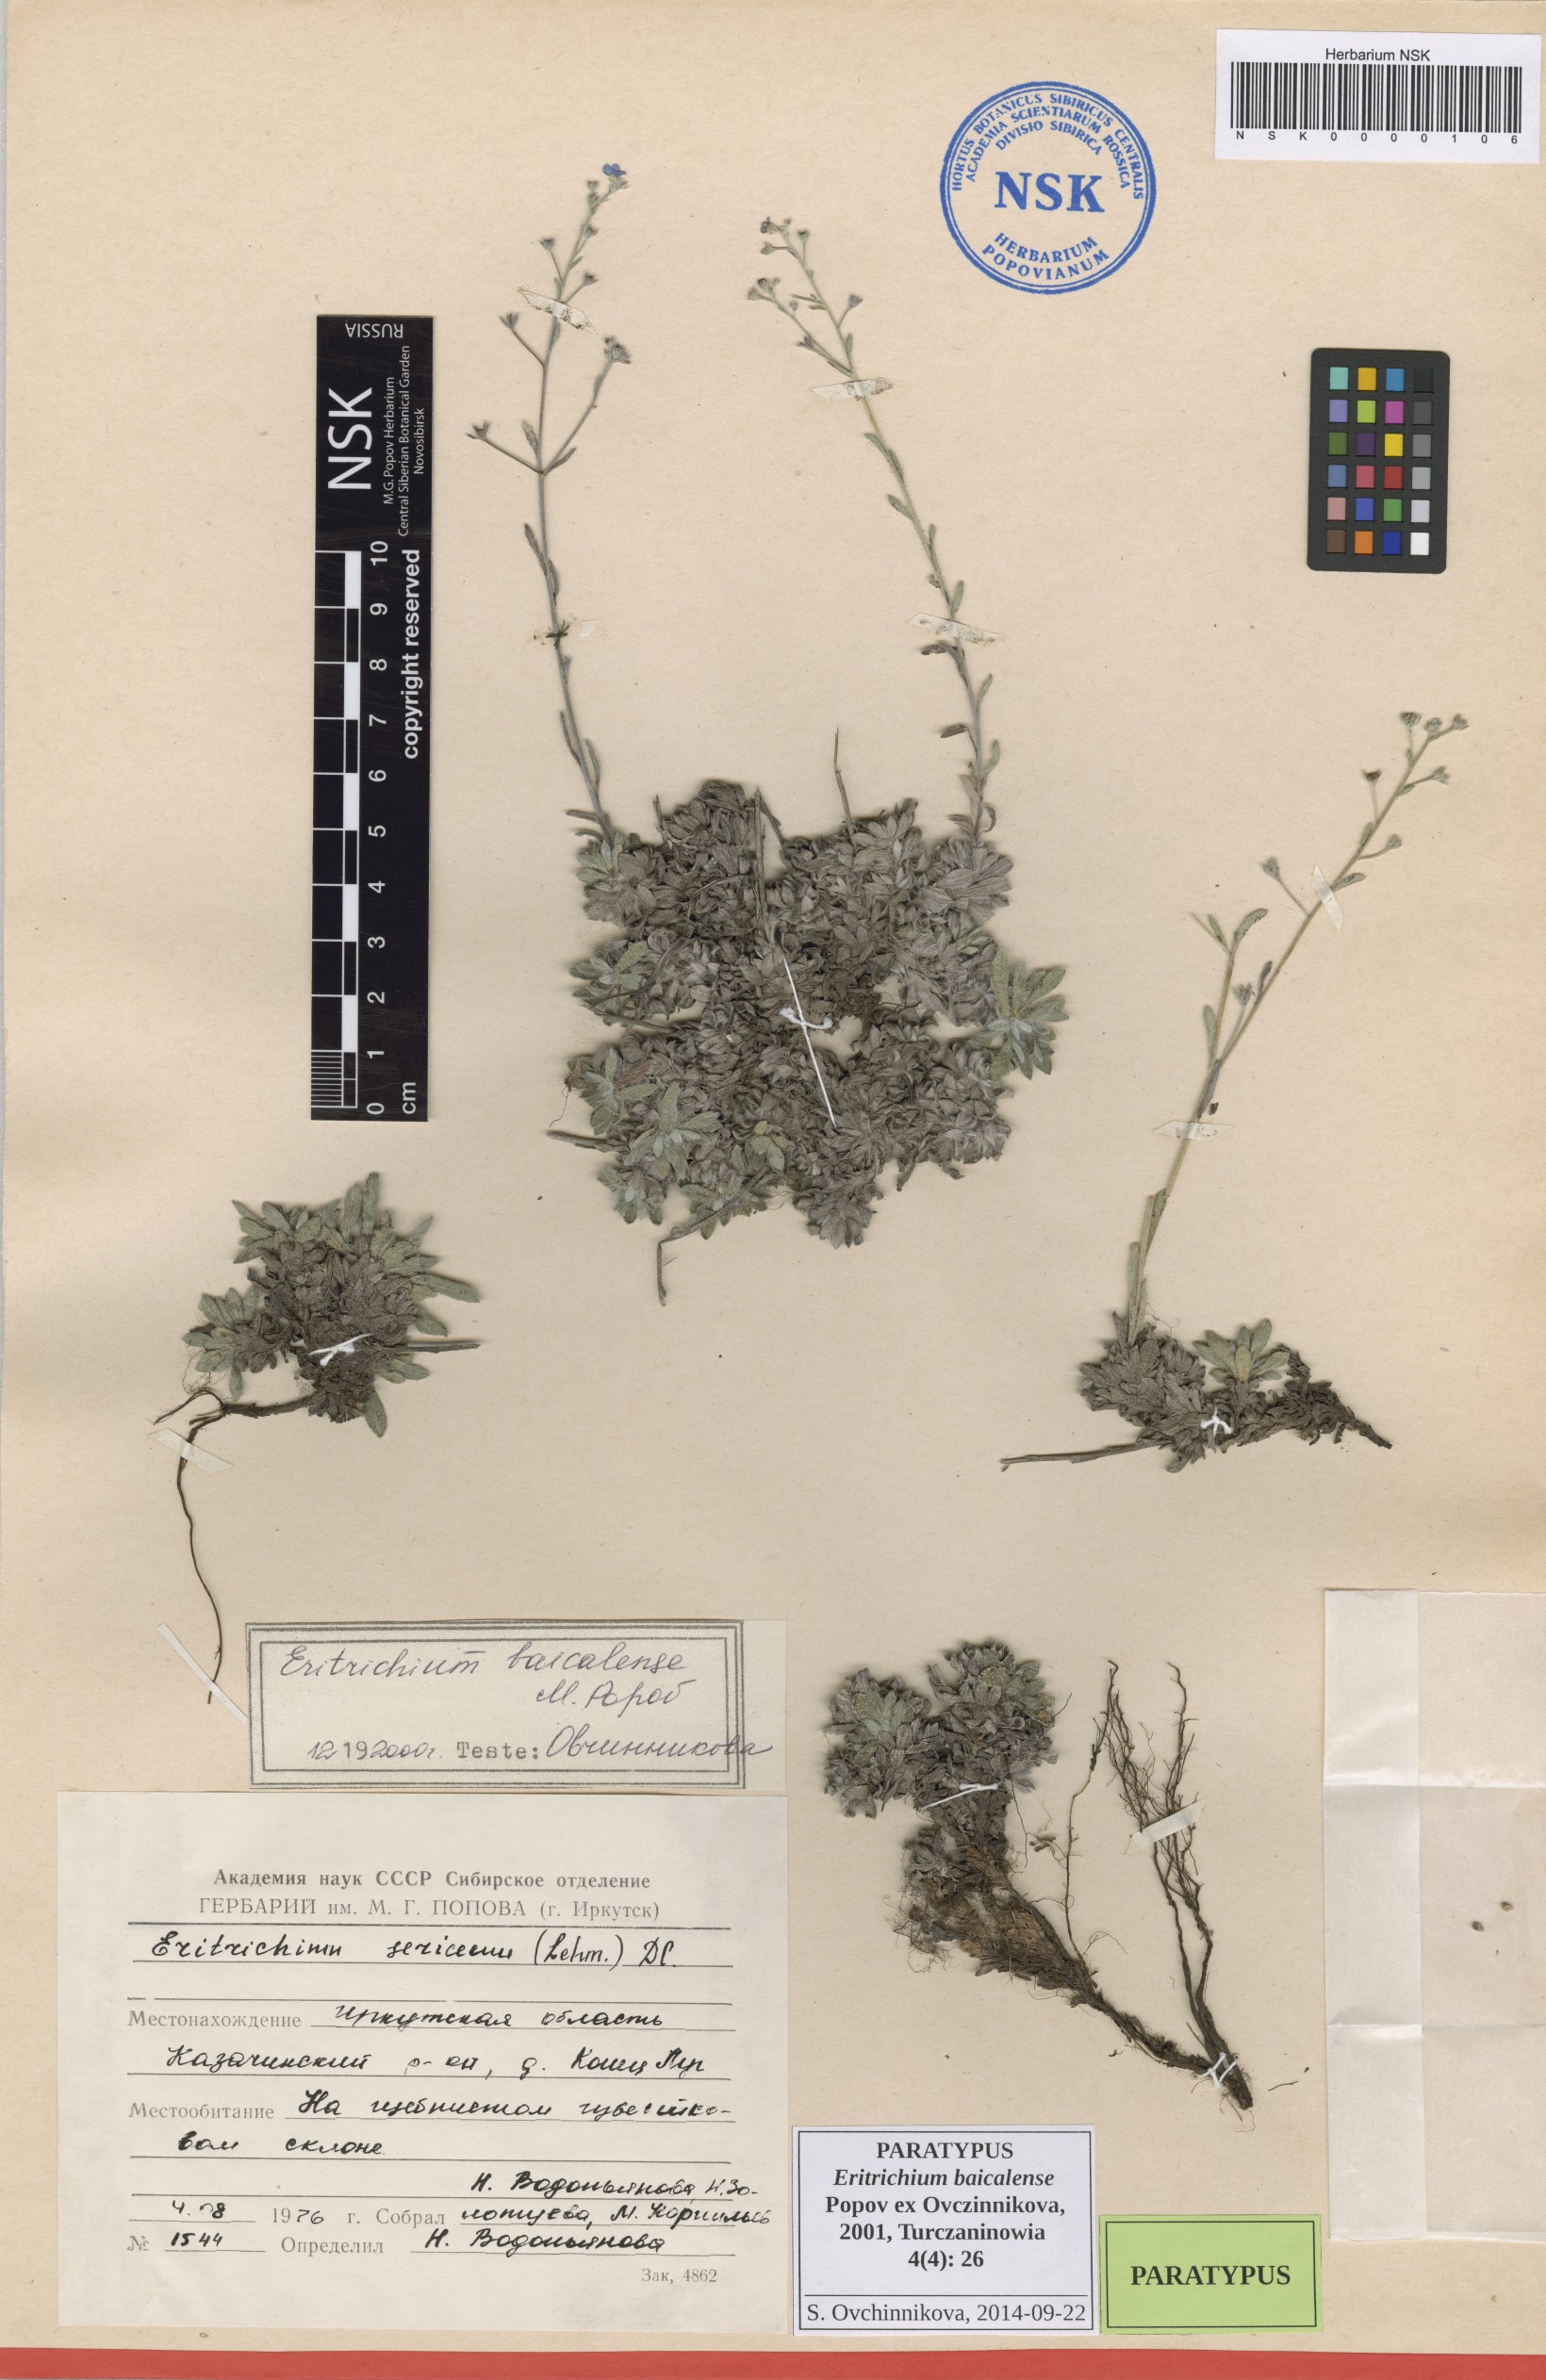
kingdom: Plantae
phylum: Tracheophyta
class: Magnoliopsida
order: Boraginales
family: Boraginaceae
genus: Eritrichium
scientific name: Eritrichium baicalense
